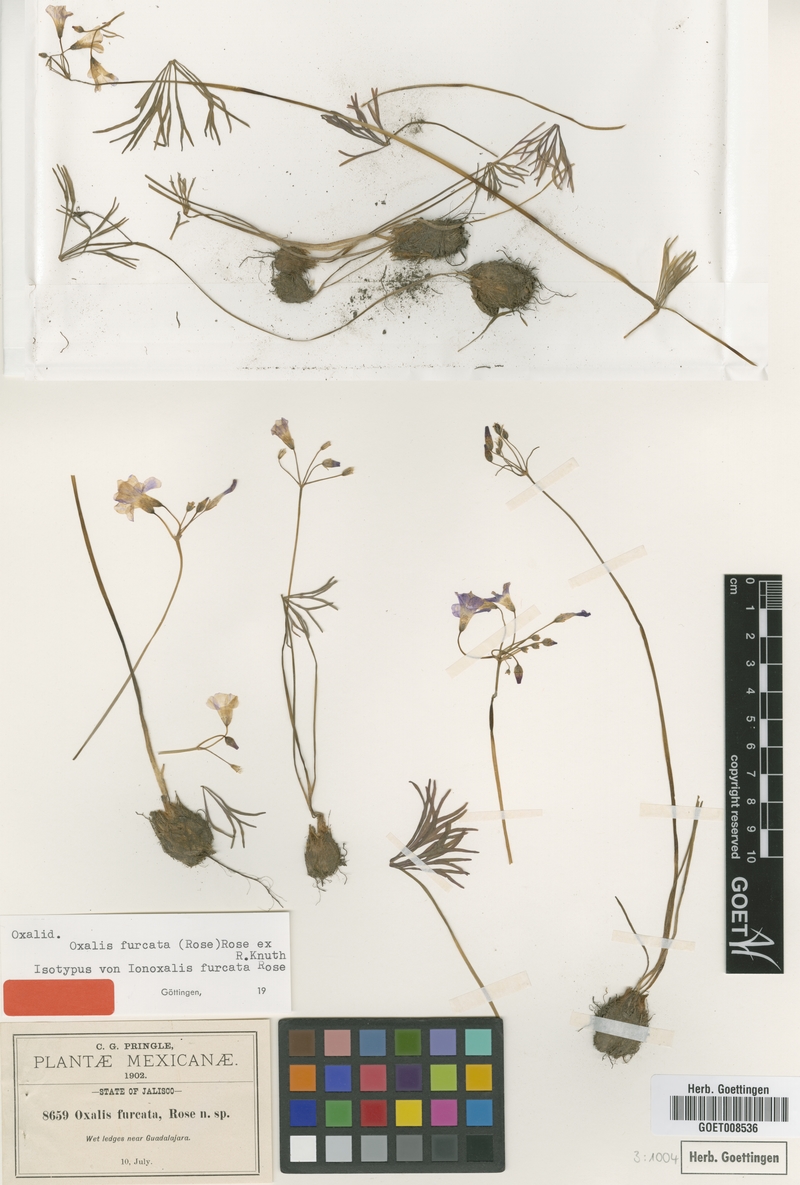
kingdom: Plantae
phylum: Tracheophyta
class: Magnoliopsida
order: Oxalidales
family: Oxalidaceae
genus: Oxalis
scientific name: Oxalis decaphylla
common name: Ten-leaved pink-sorrel
